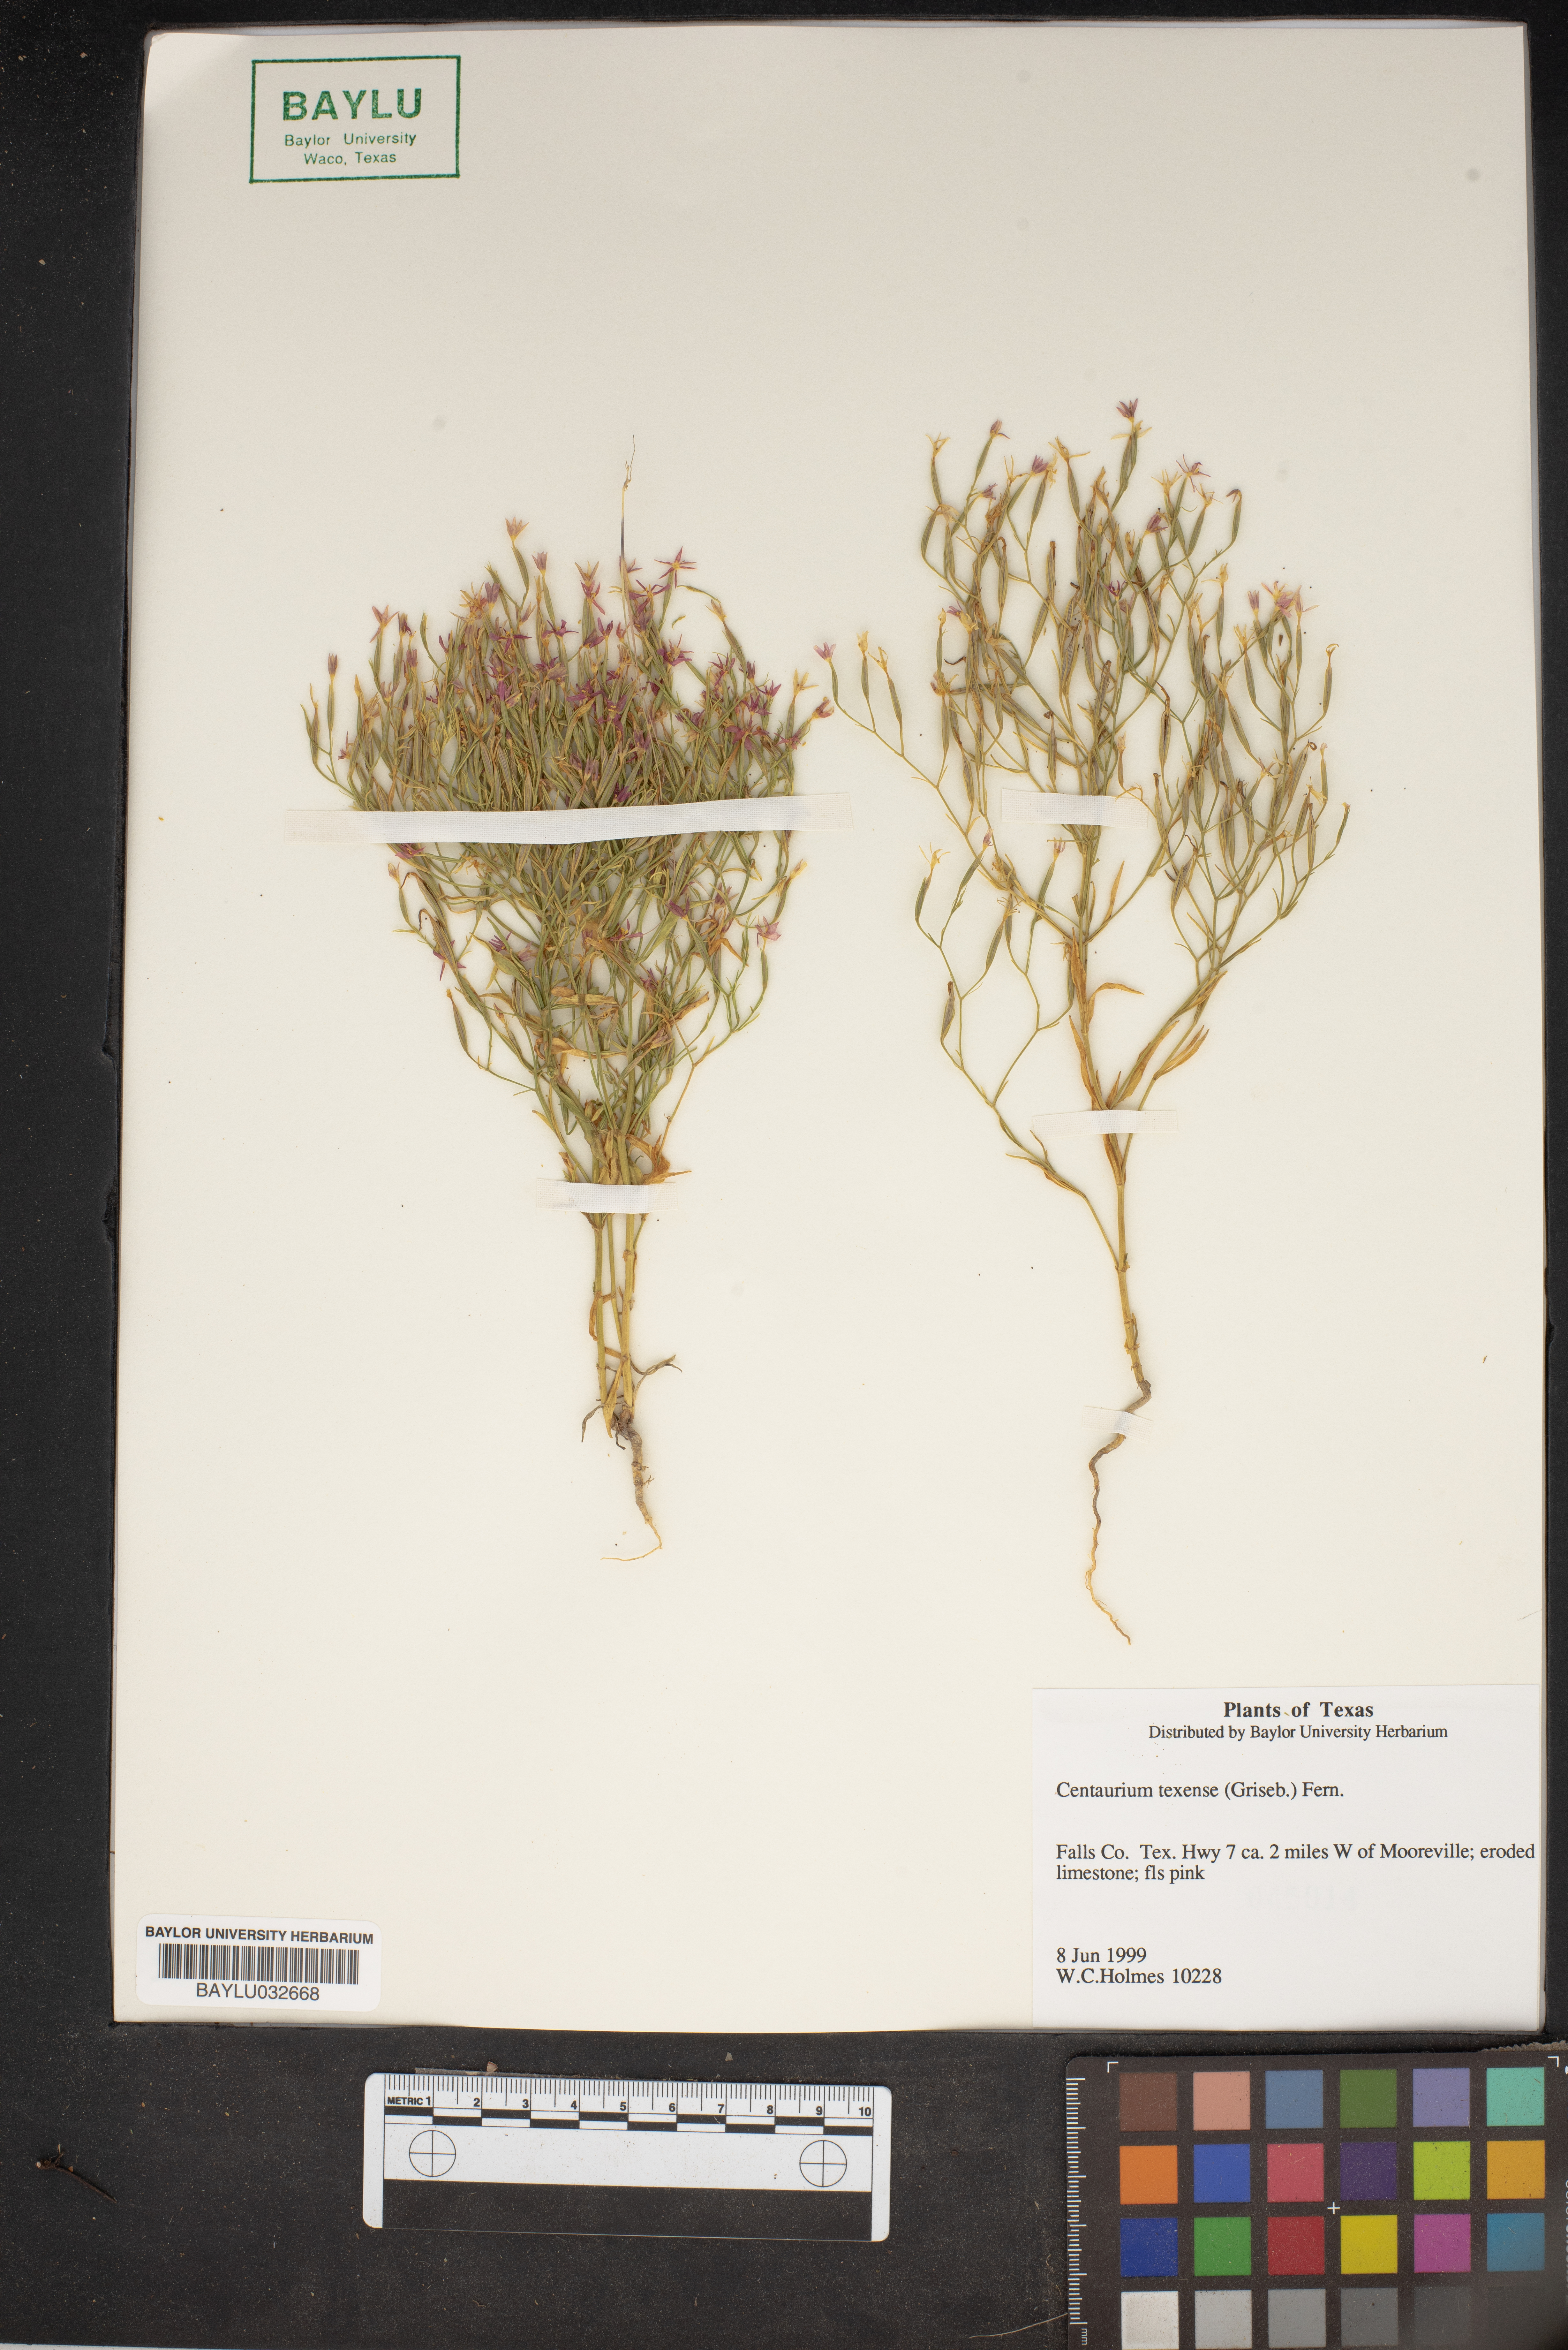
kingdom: Plantae
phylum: Tracheophyta
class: Magnoliopsida
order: Gentianales
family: Gentianaceae
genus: Zeltnera
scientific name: Zeltnera texensis
